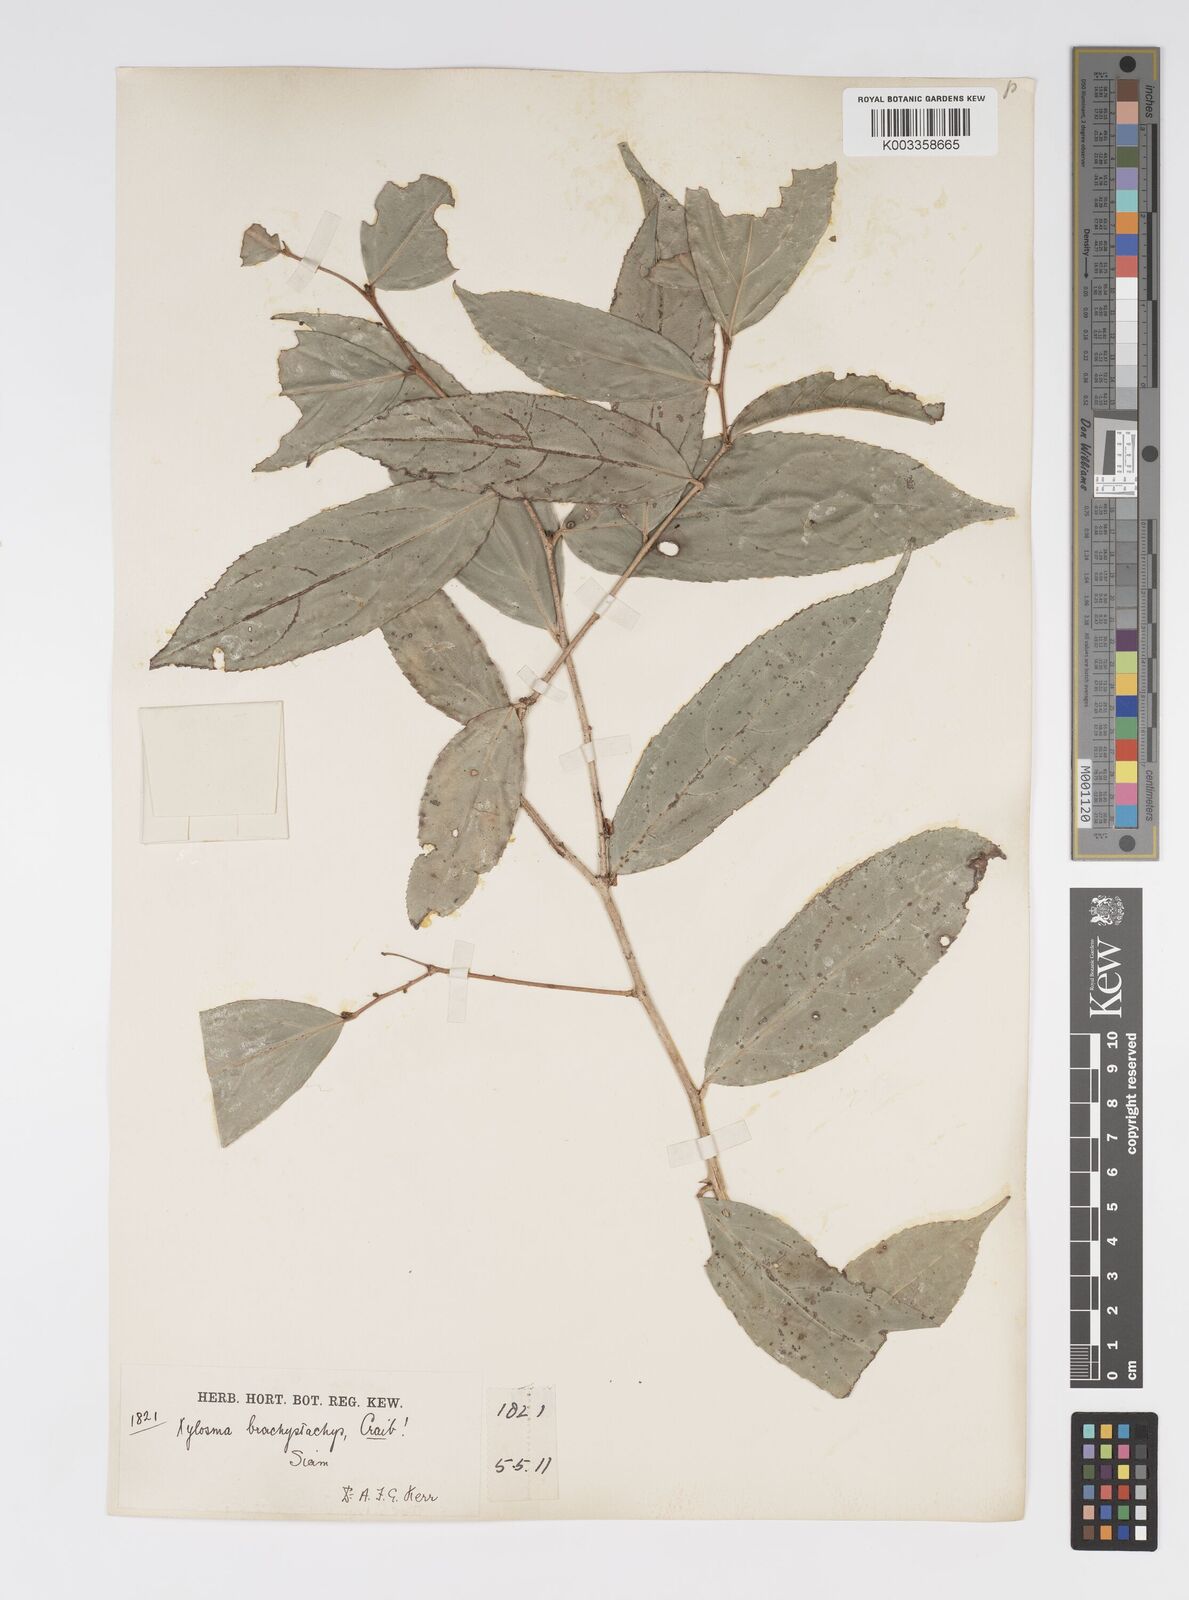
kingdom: Plantae
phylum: Tracheophyta
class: Magnoliopsida
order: Malpighiales
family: Salicaceae
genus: Xylosma
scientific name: Xylosma brachystachys
